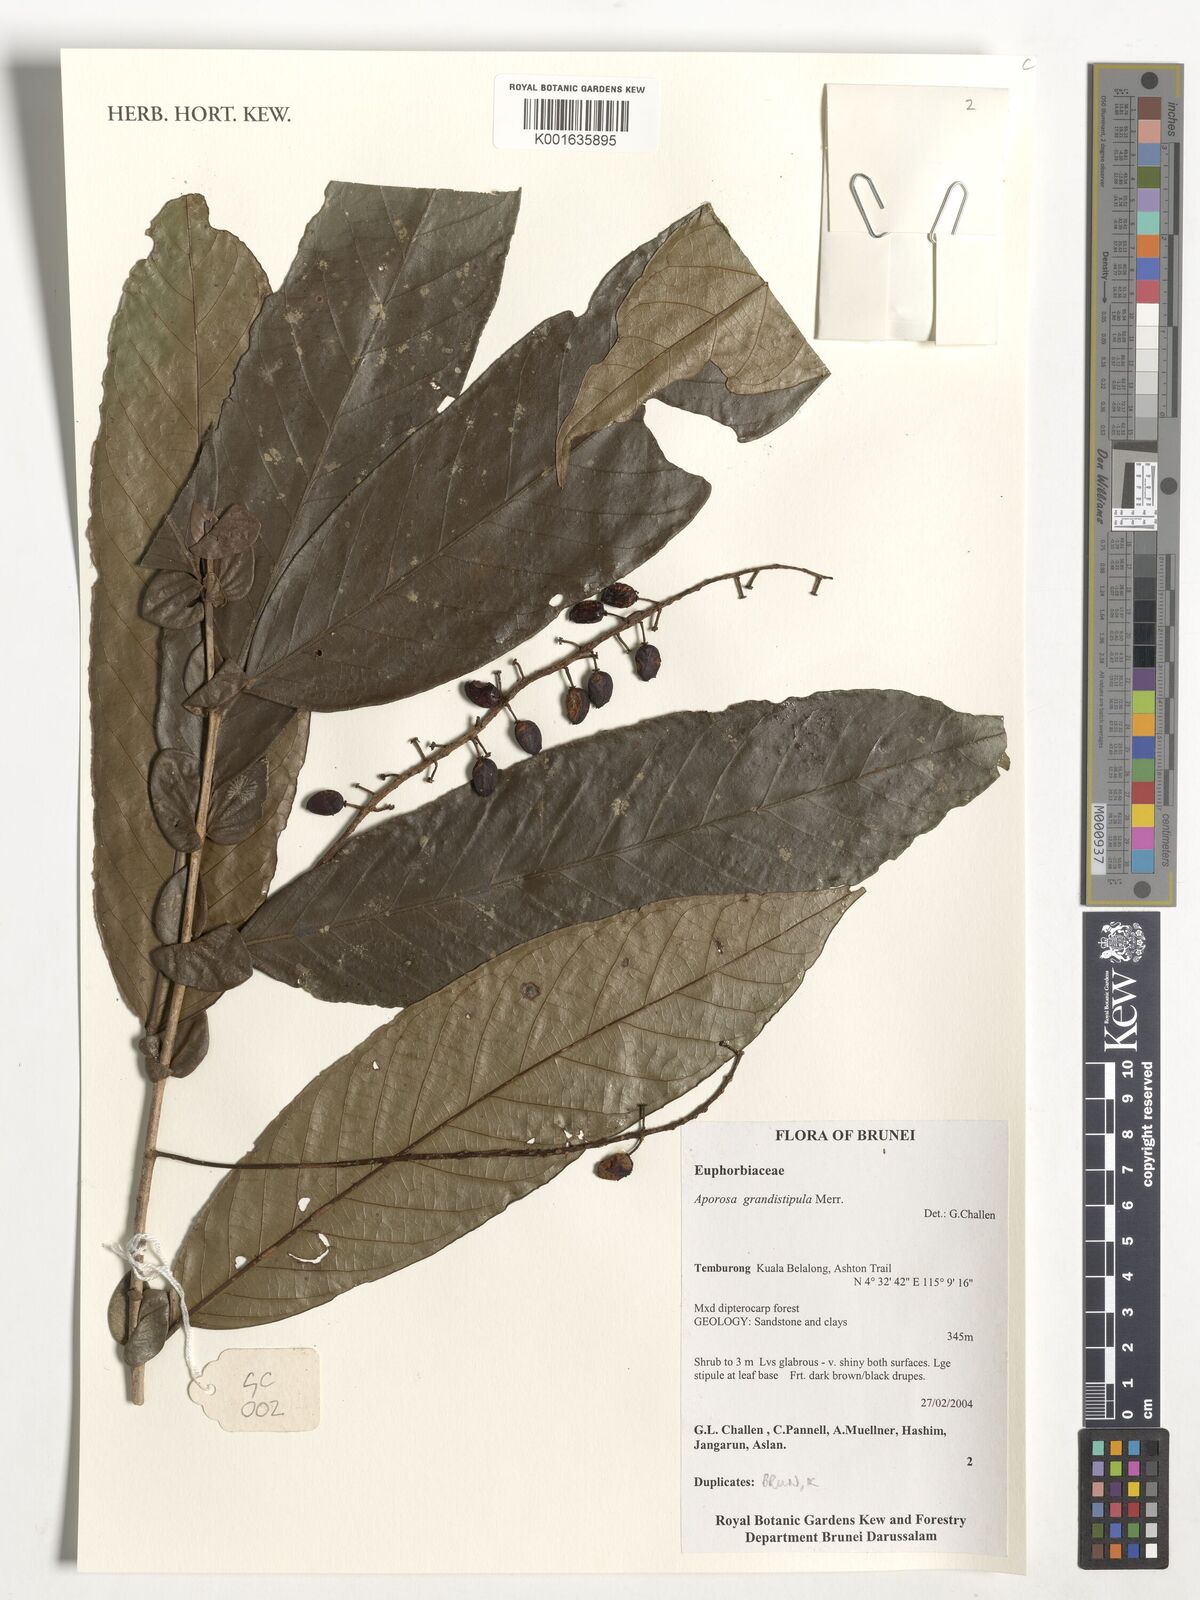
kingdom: Plantae
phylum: Tracheophyta
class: Magnoliopsida
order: Malpighiales
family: Phyllanthaceae
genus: Aporosa
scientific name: Aporosa grandistipula
